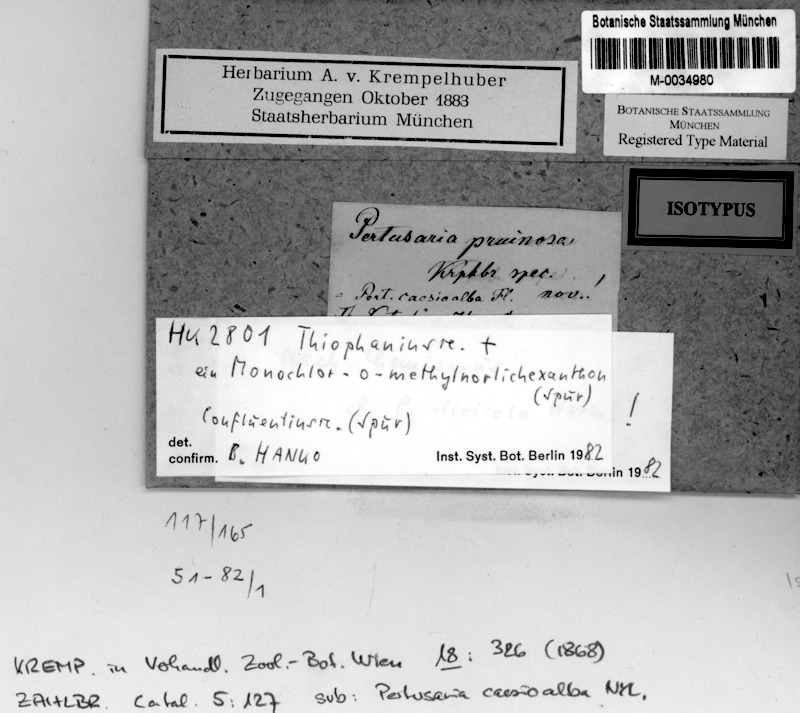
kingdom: Fungi
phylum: Ascomycota
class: Lecanoromycetes
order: Pertusariales
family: Pertusariaceae
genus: Pertusaria
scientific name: Pertusaria
